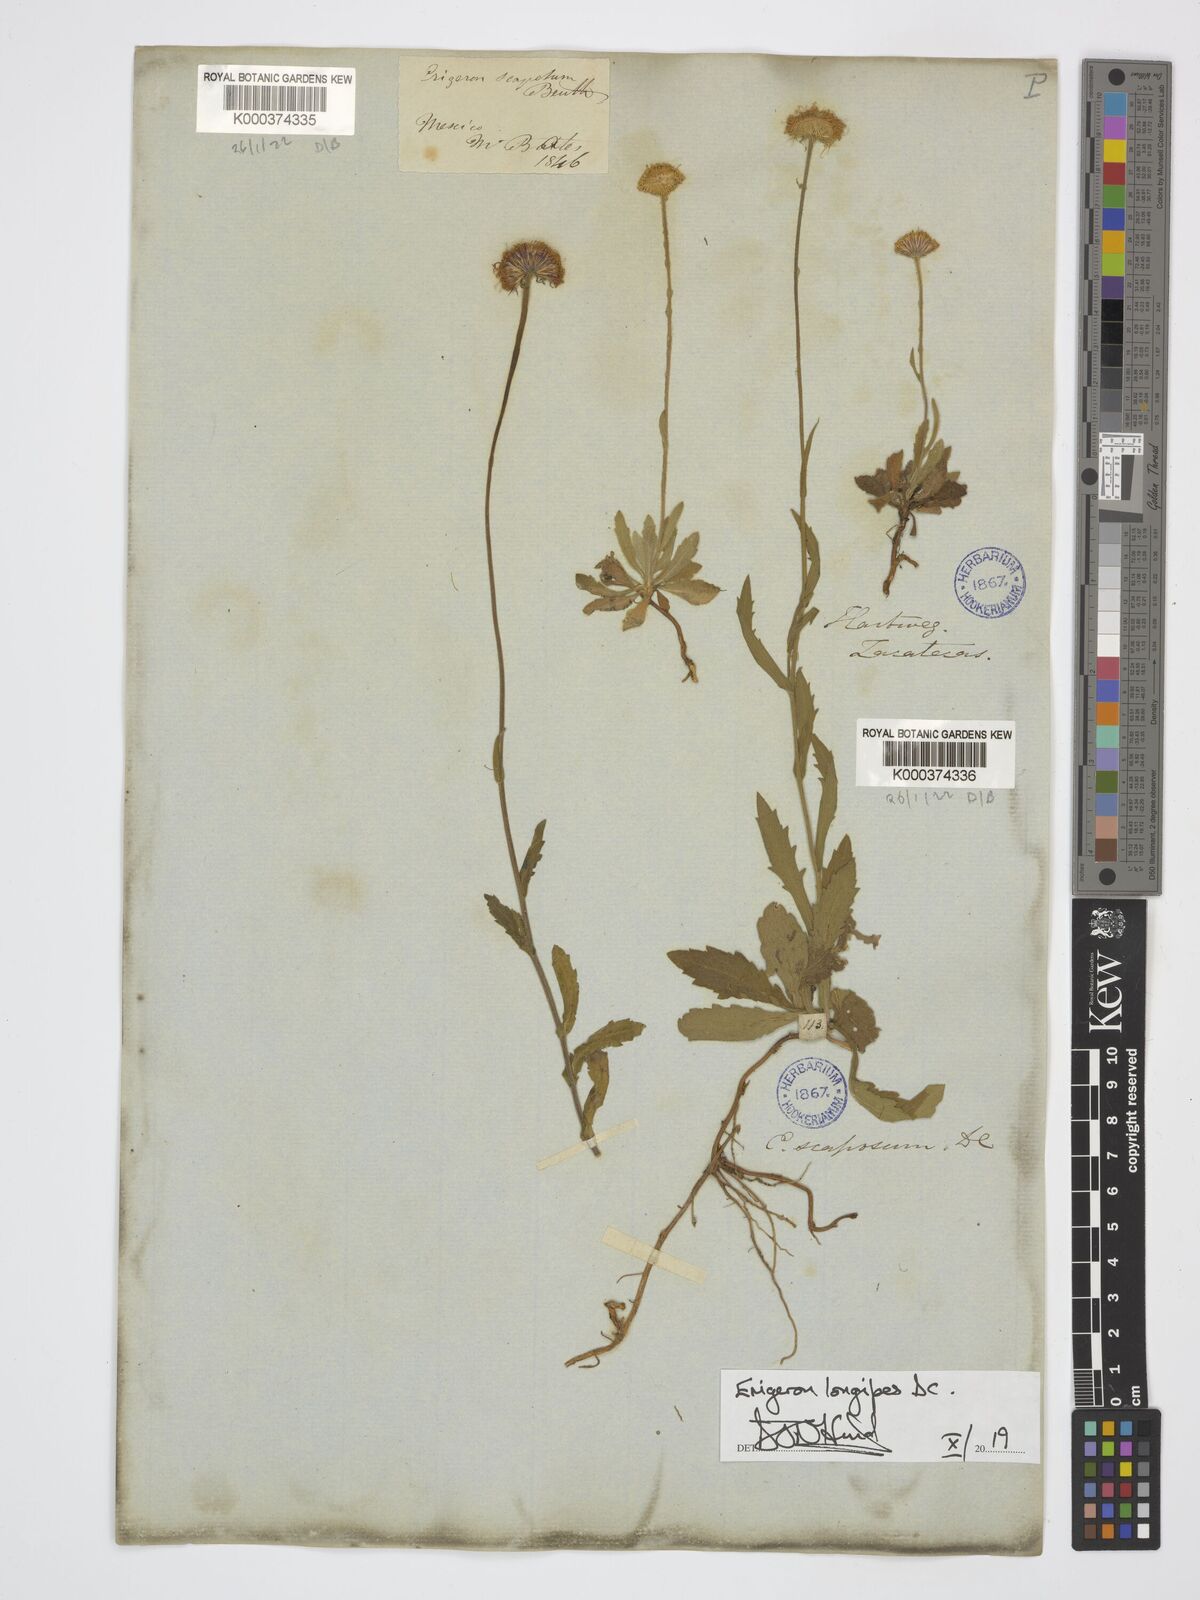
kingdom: Plantae
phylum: Tracheophyta
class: Magnoliopsida
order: Asterales
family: Asteraceae
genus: Erigeron
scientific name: Erigeron longipes
